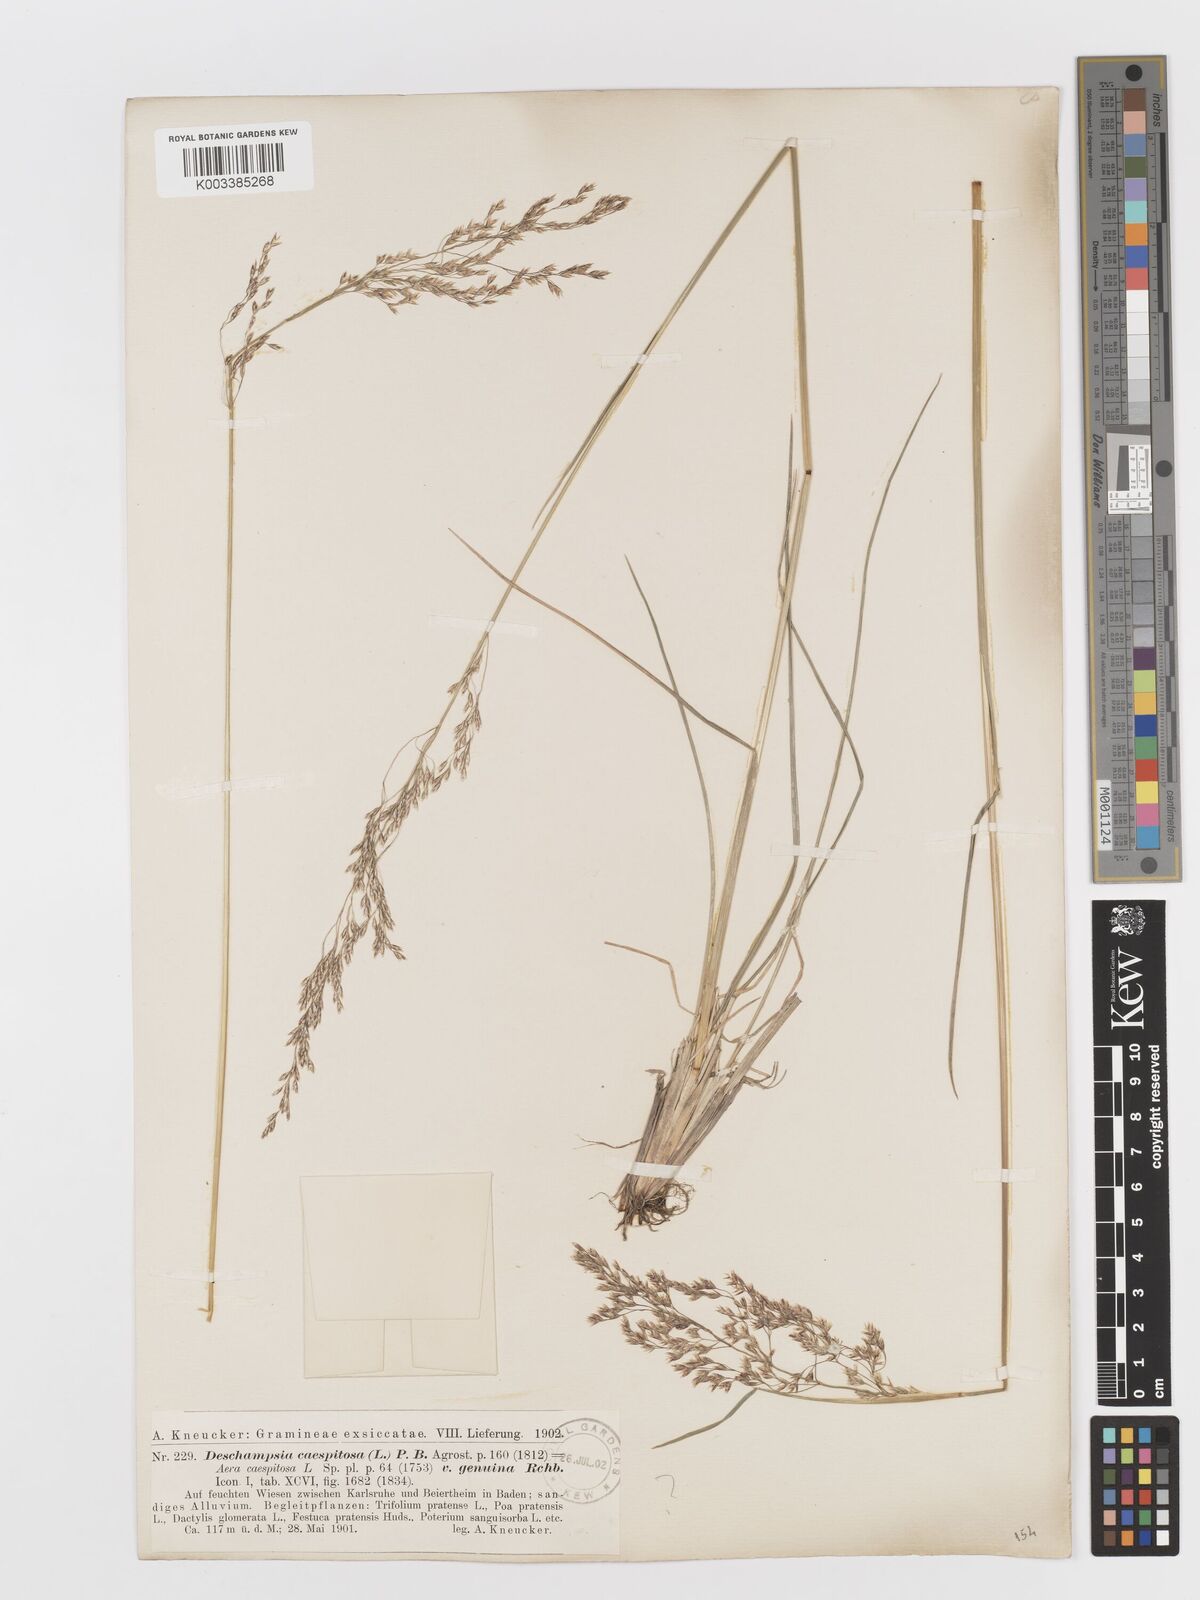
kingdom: Plantae
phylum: Tracheophyta
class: Liliopsida
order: Poales
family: Poaceae
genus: Deschampsia
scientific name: Deschampsia cespitosa
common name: Tufted hair-grass
